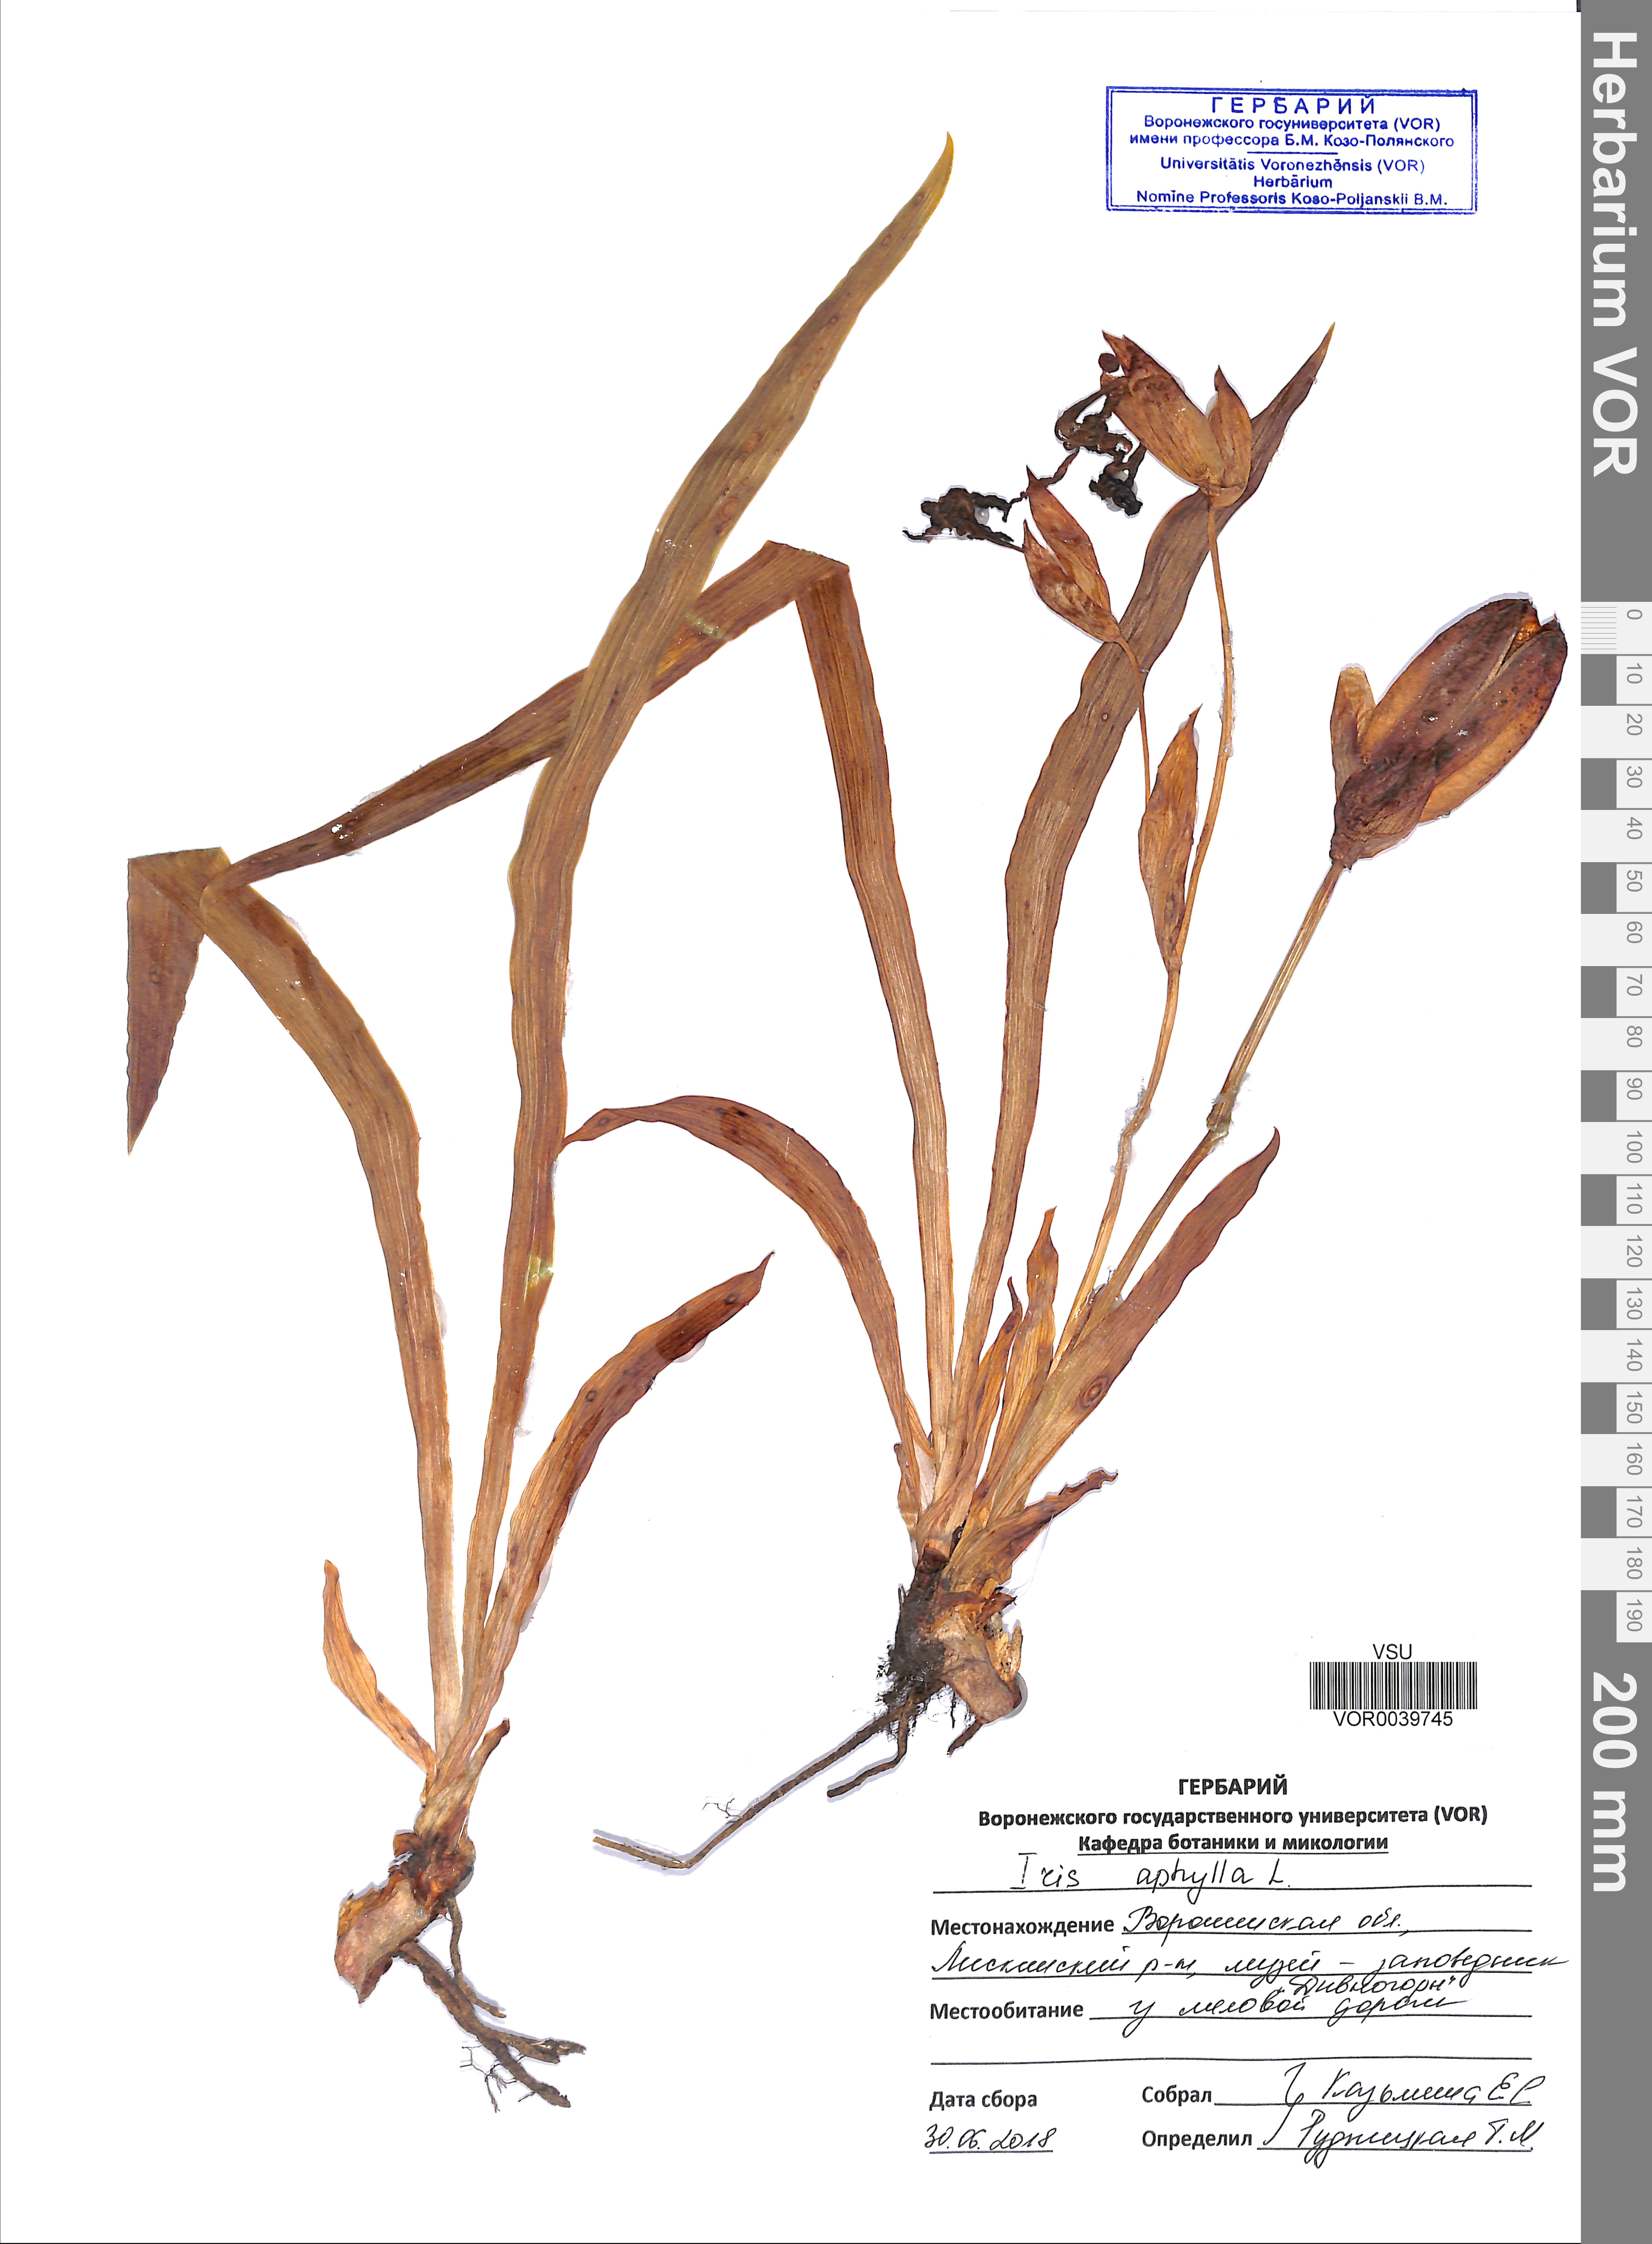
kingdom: Plantae
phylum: Tracheophyta
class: Liliopsida
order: Asparagales
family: Iridaceae
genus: Iris
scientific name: Iris aphylla
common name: Stool iris
